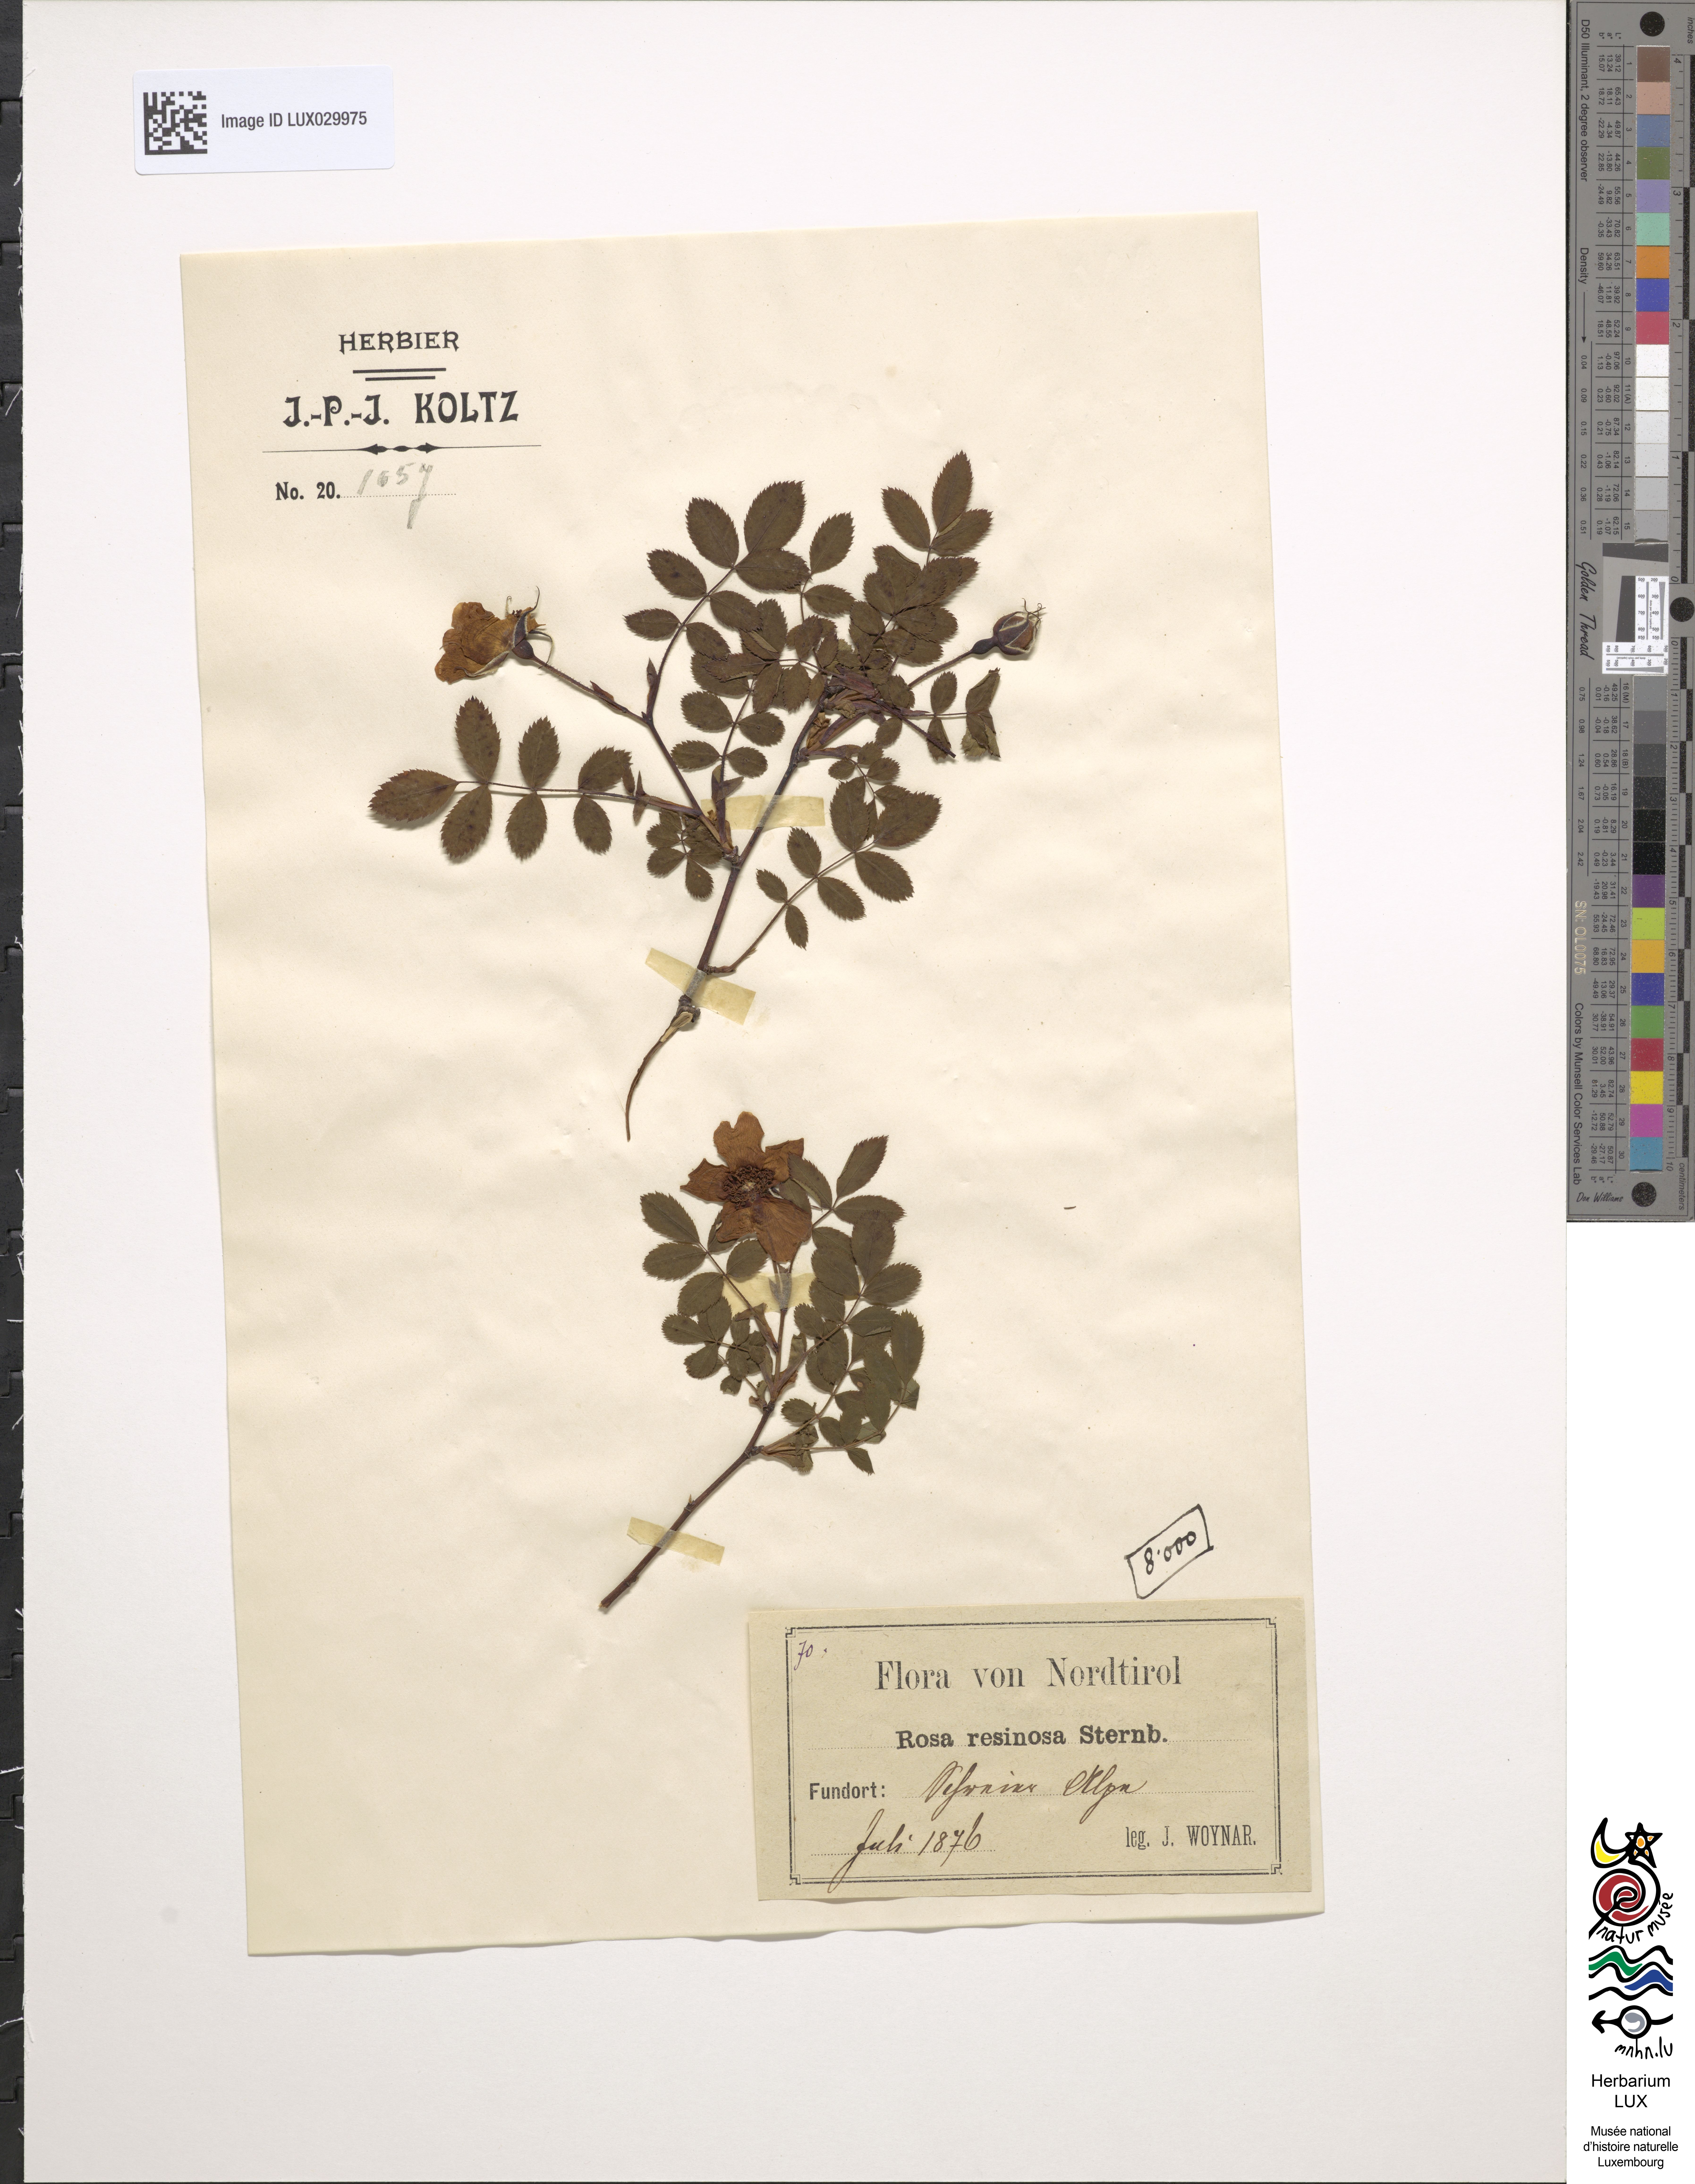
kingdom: Plantae
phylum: Tracheophyta
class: Magnoliopsida
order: Rosales
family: Rosaceae
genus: Rosa
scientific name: Rosa villosa
